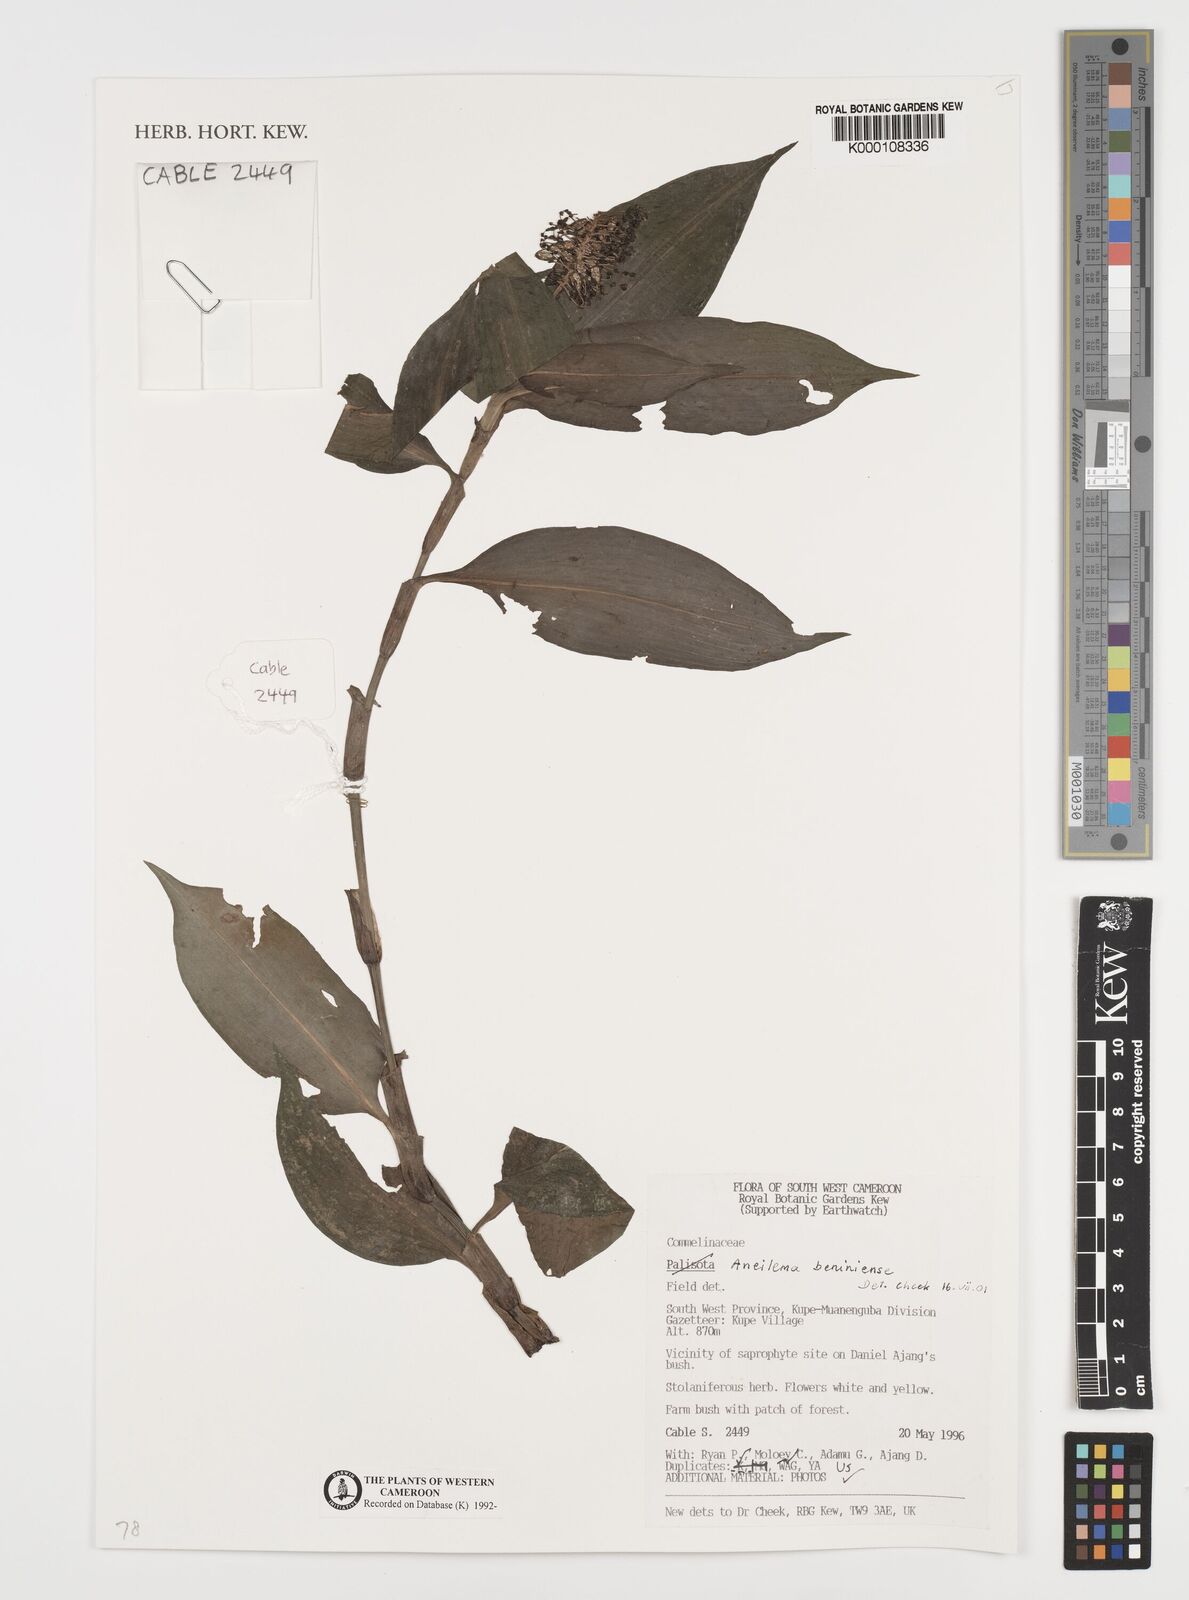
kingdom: Plantae
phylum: Tracheophyta
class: Liliopsida
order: Commelinales
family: Commelinaceae
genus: Aneilema
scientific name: Aneilema beniniense
